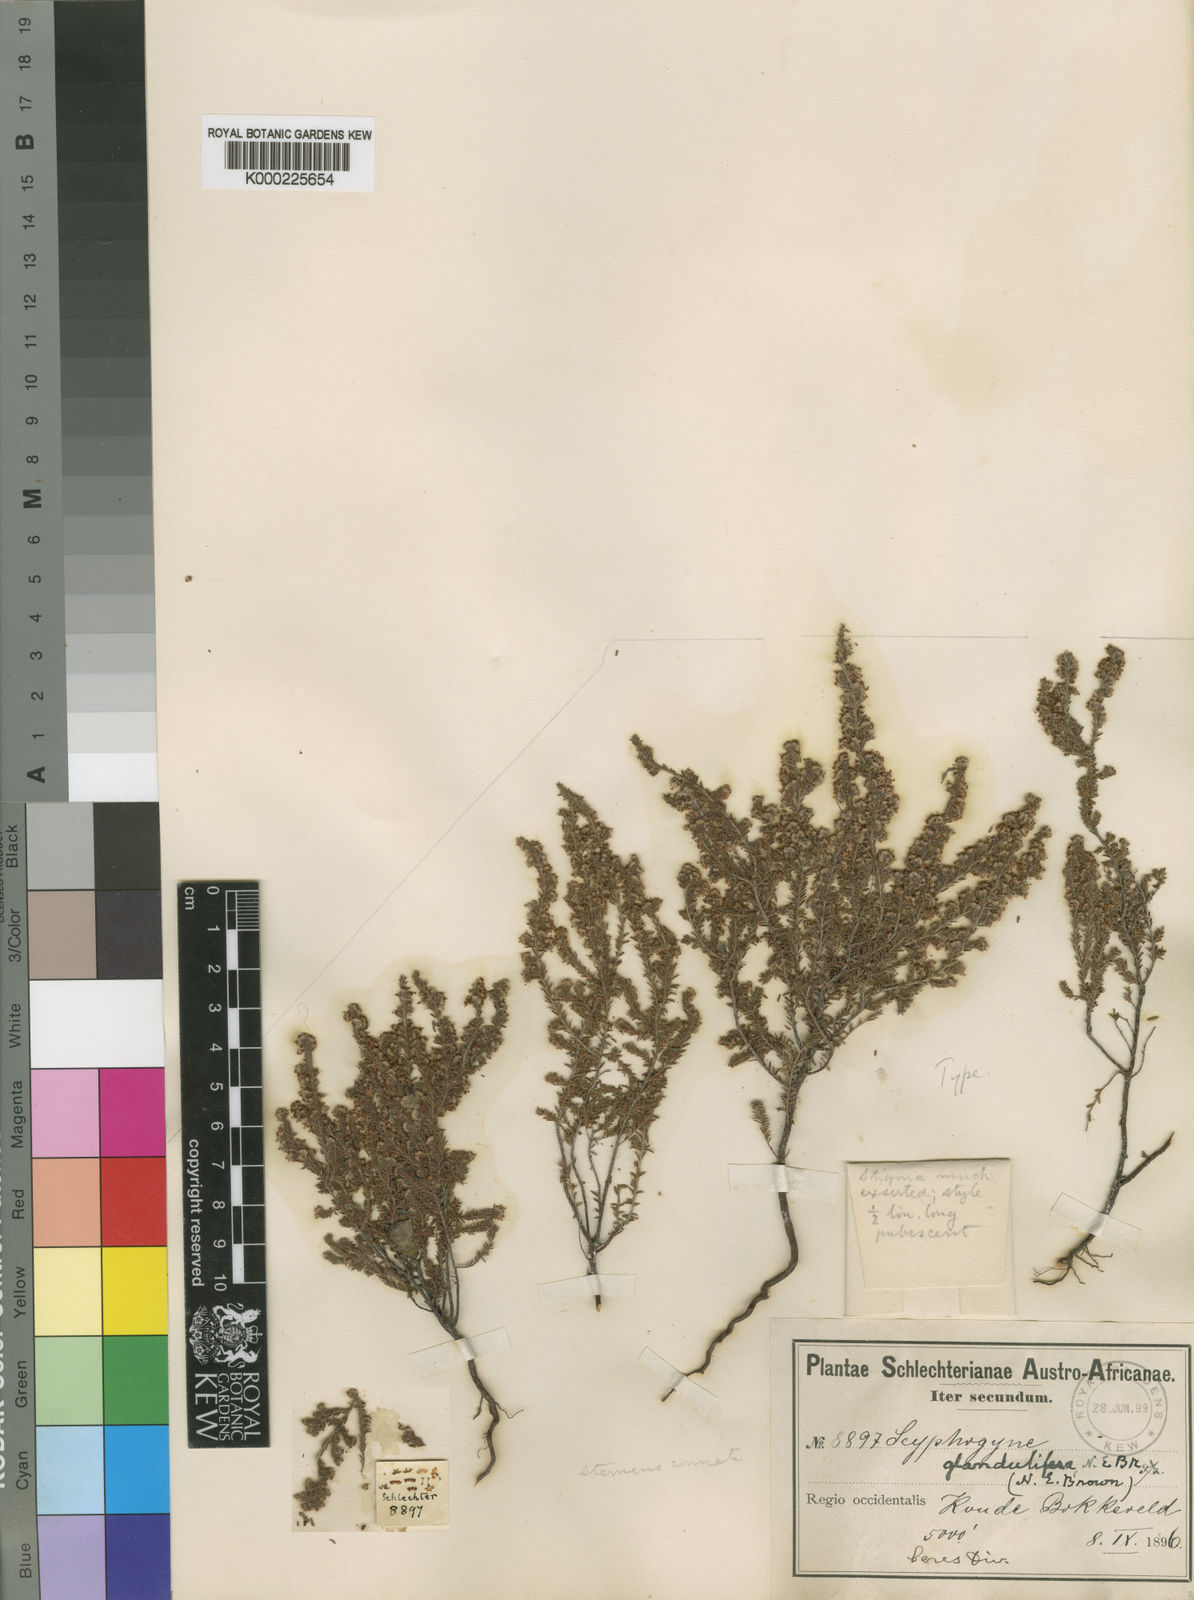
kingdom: Plantae
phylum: Tracheophyta
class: Magnoliopsida
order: Ericales
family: Ericaceae
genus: Erica
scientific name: Erica rigidula
